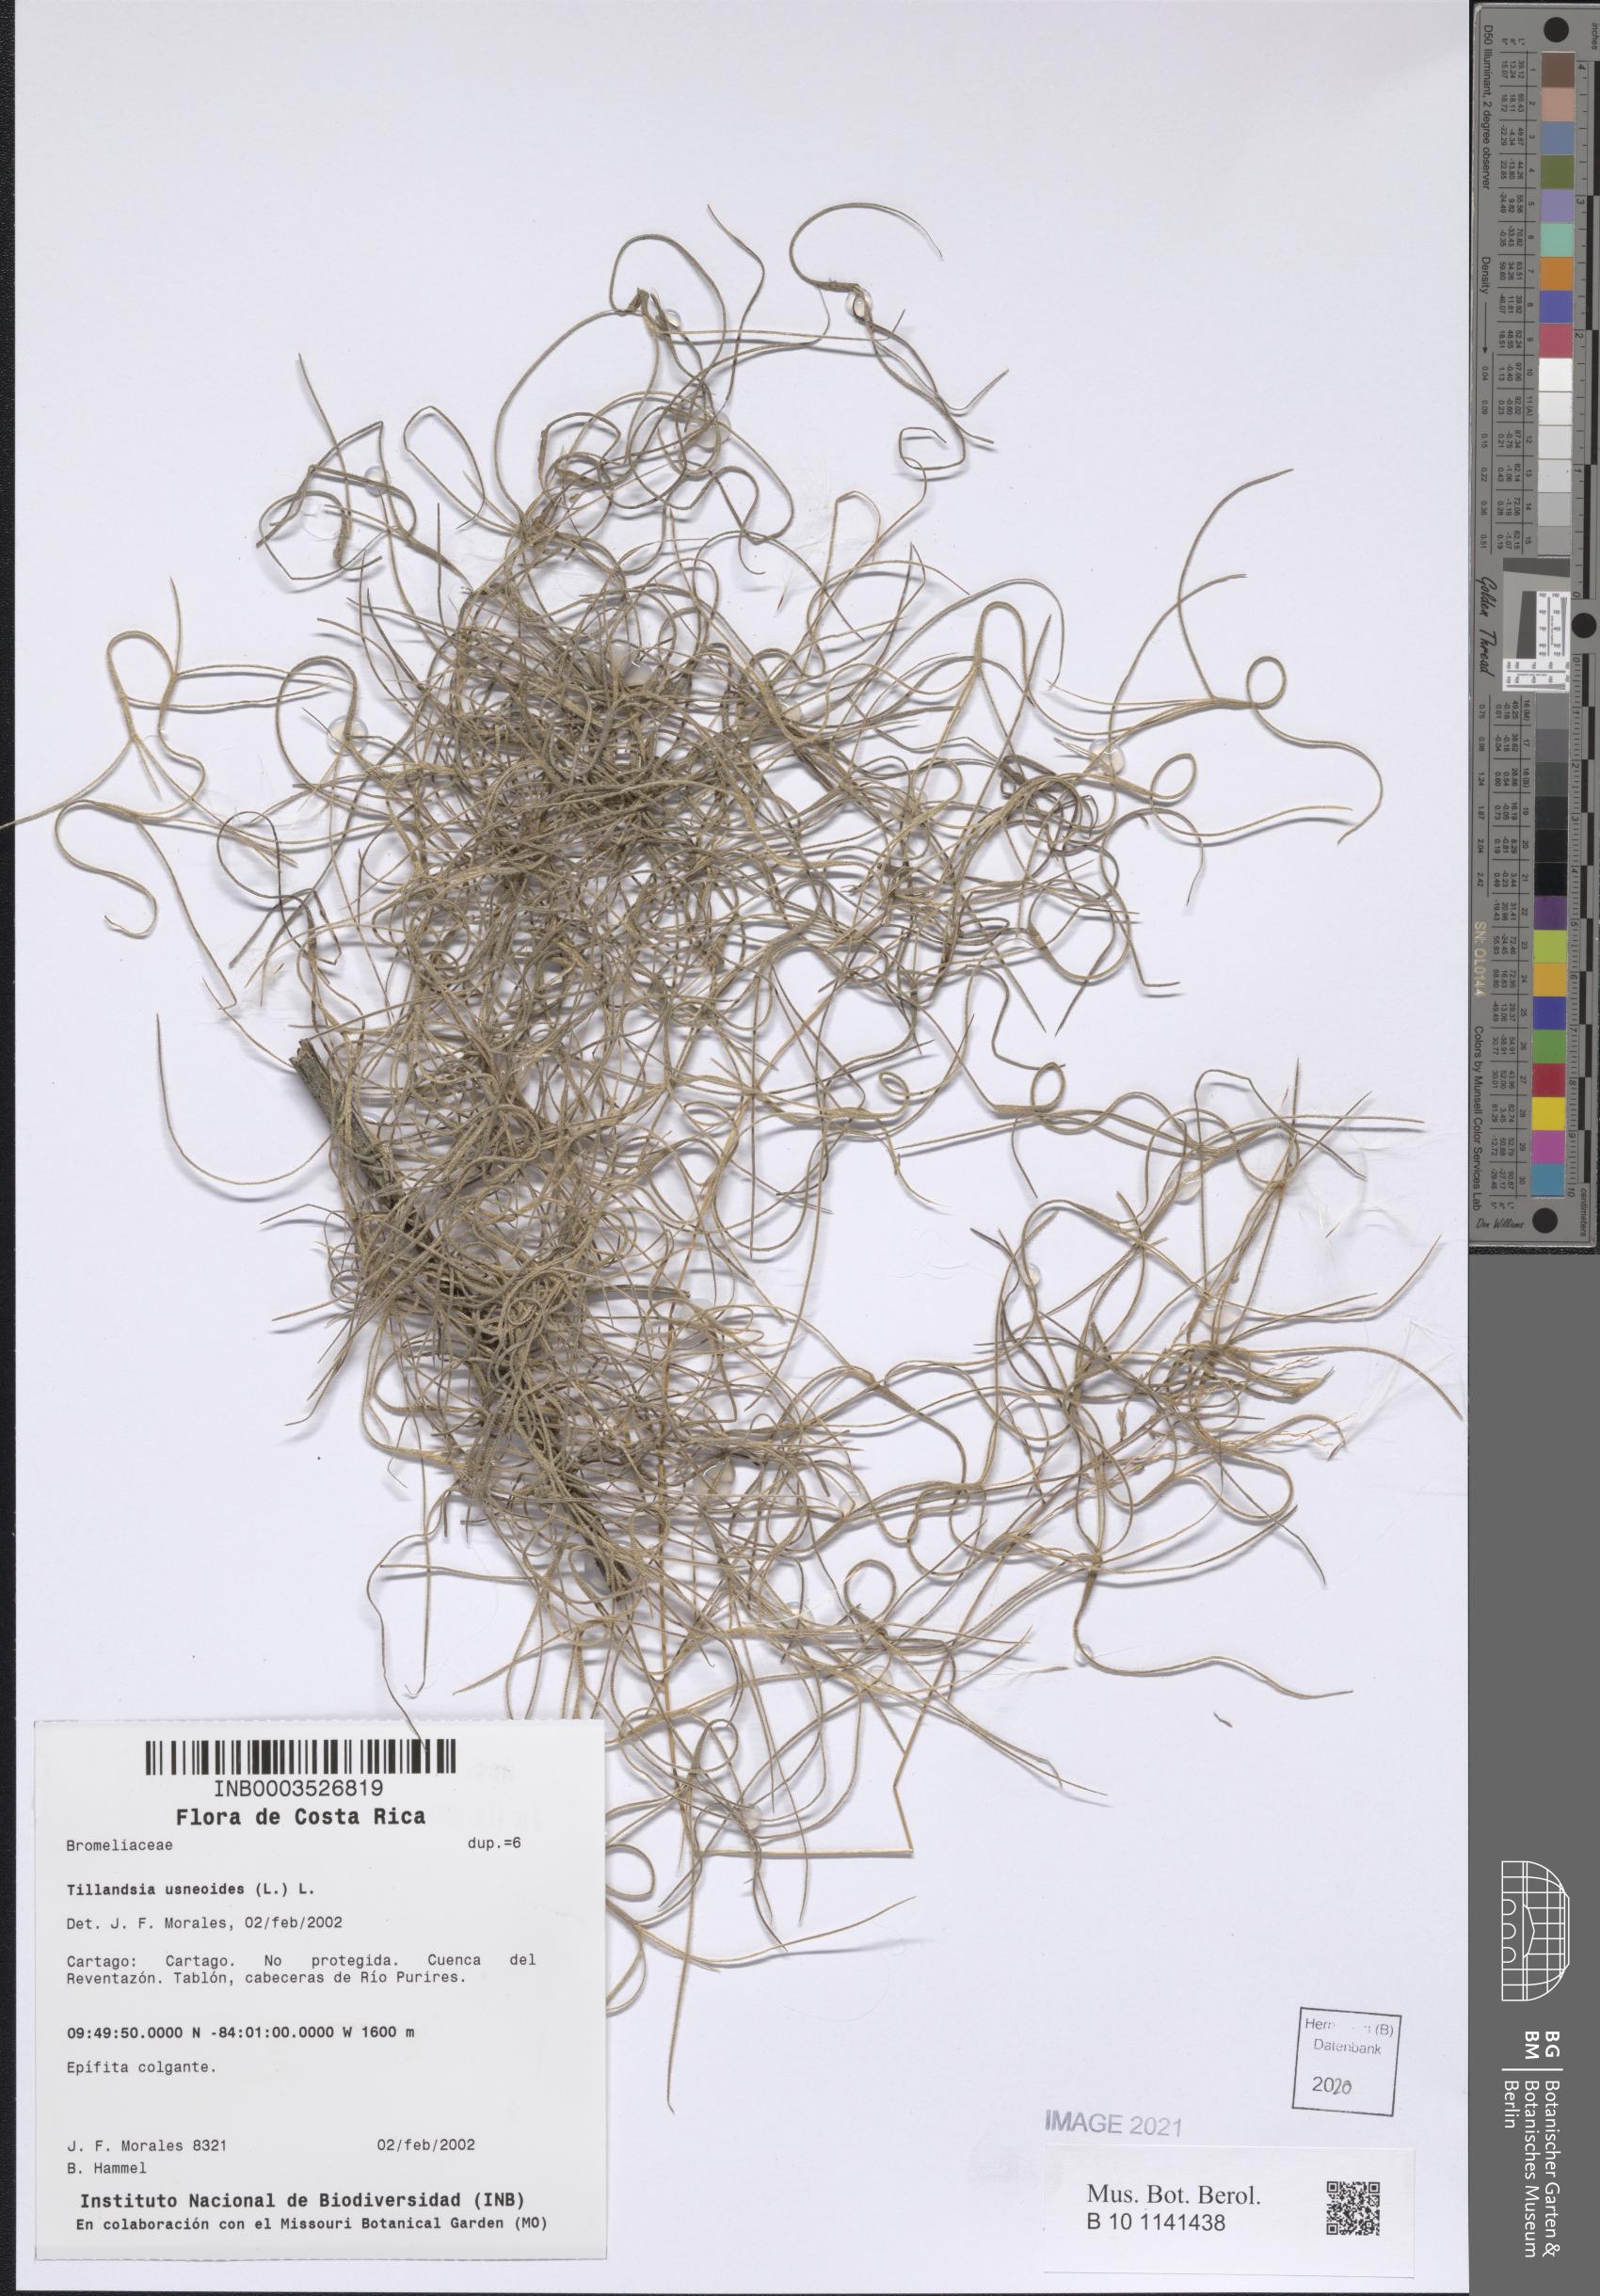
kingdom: Plantae
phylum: Tracheophyta
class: Liliopsida
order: Poales
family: Bromeliaceae
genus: Tillandsia
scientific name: Tillandsia usneoides
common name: Spanish moss
